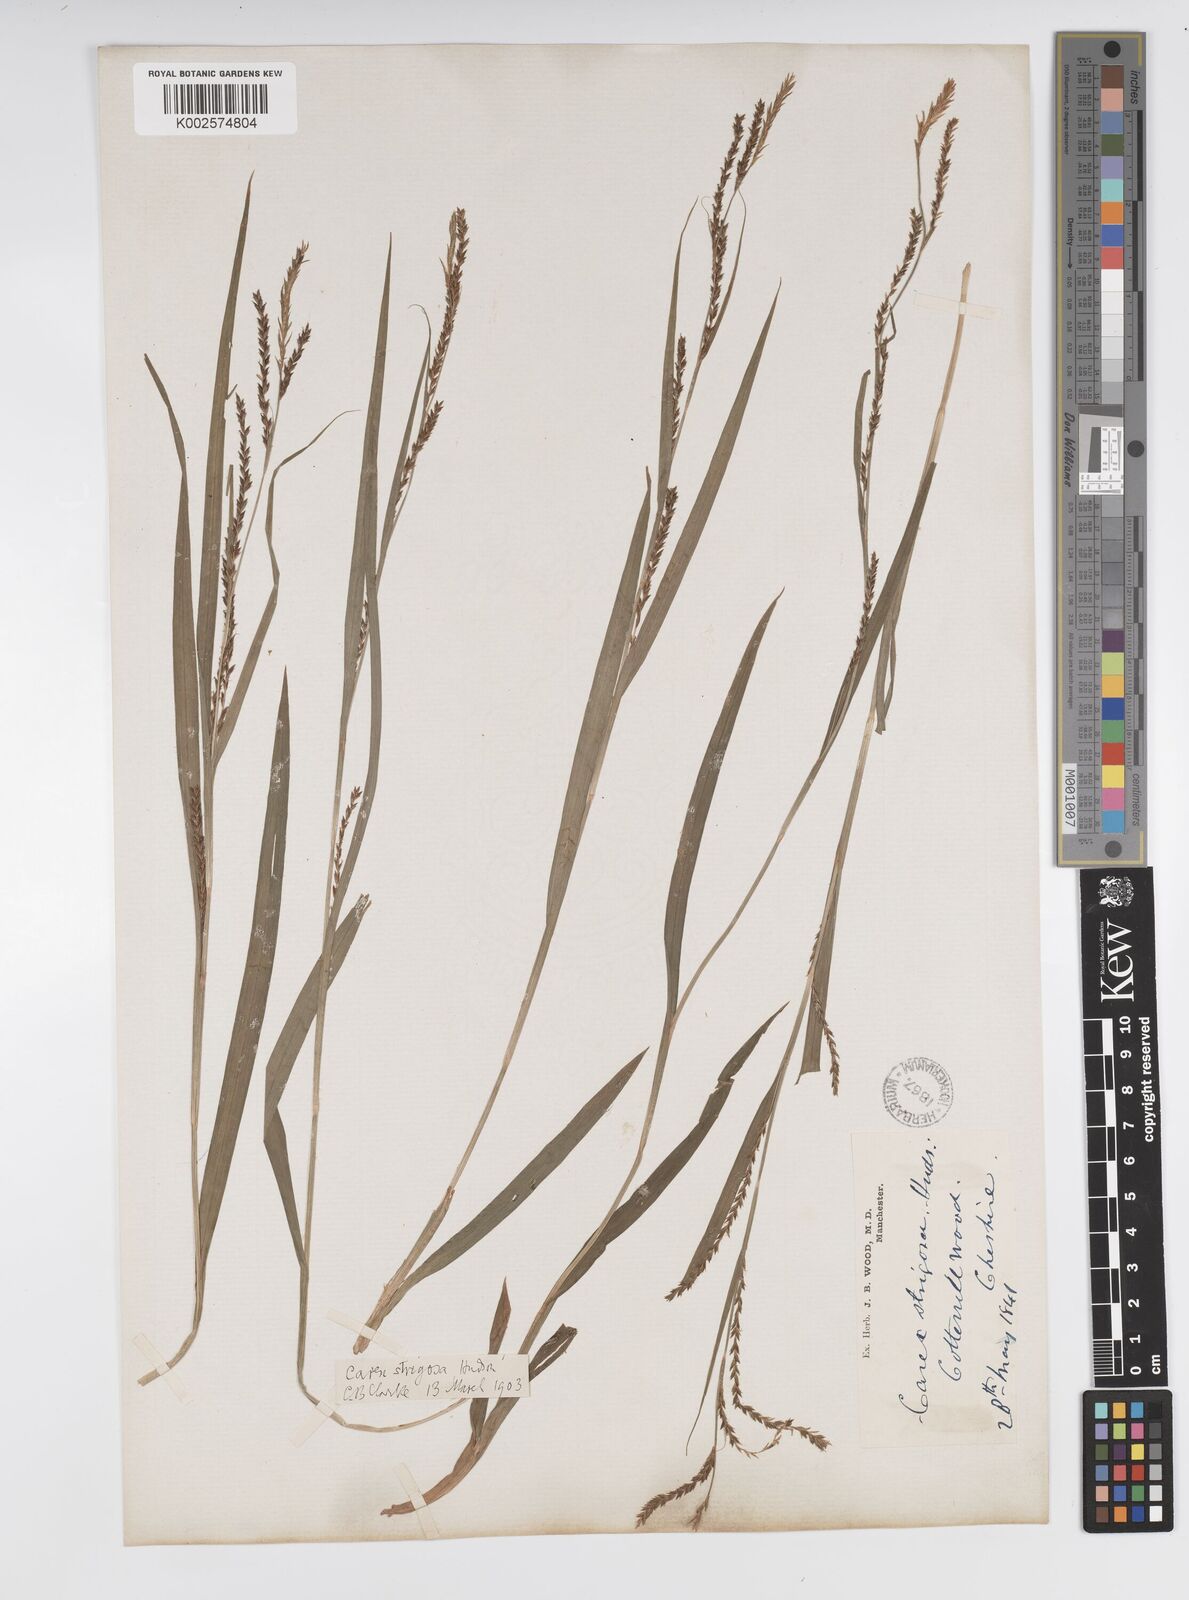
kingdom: Plantae
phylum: Tracheophyta
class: Liliopsida
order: Poales
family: Cyperaceae
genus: Carex
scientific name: Carex strigosa
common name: Thin-spiked wood-sedge
